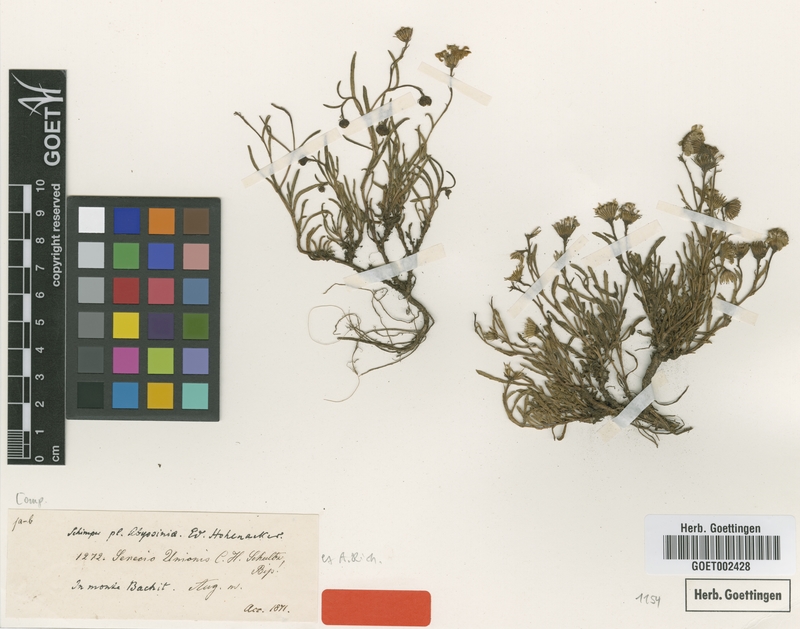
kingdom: Plantae
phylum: Tracheophyta
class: Magnoliopsida
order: Asterales
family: Asteraceae
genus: Senecio
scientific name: Senecio unionis
